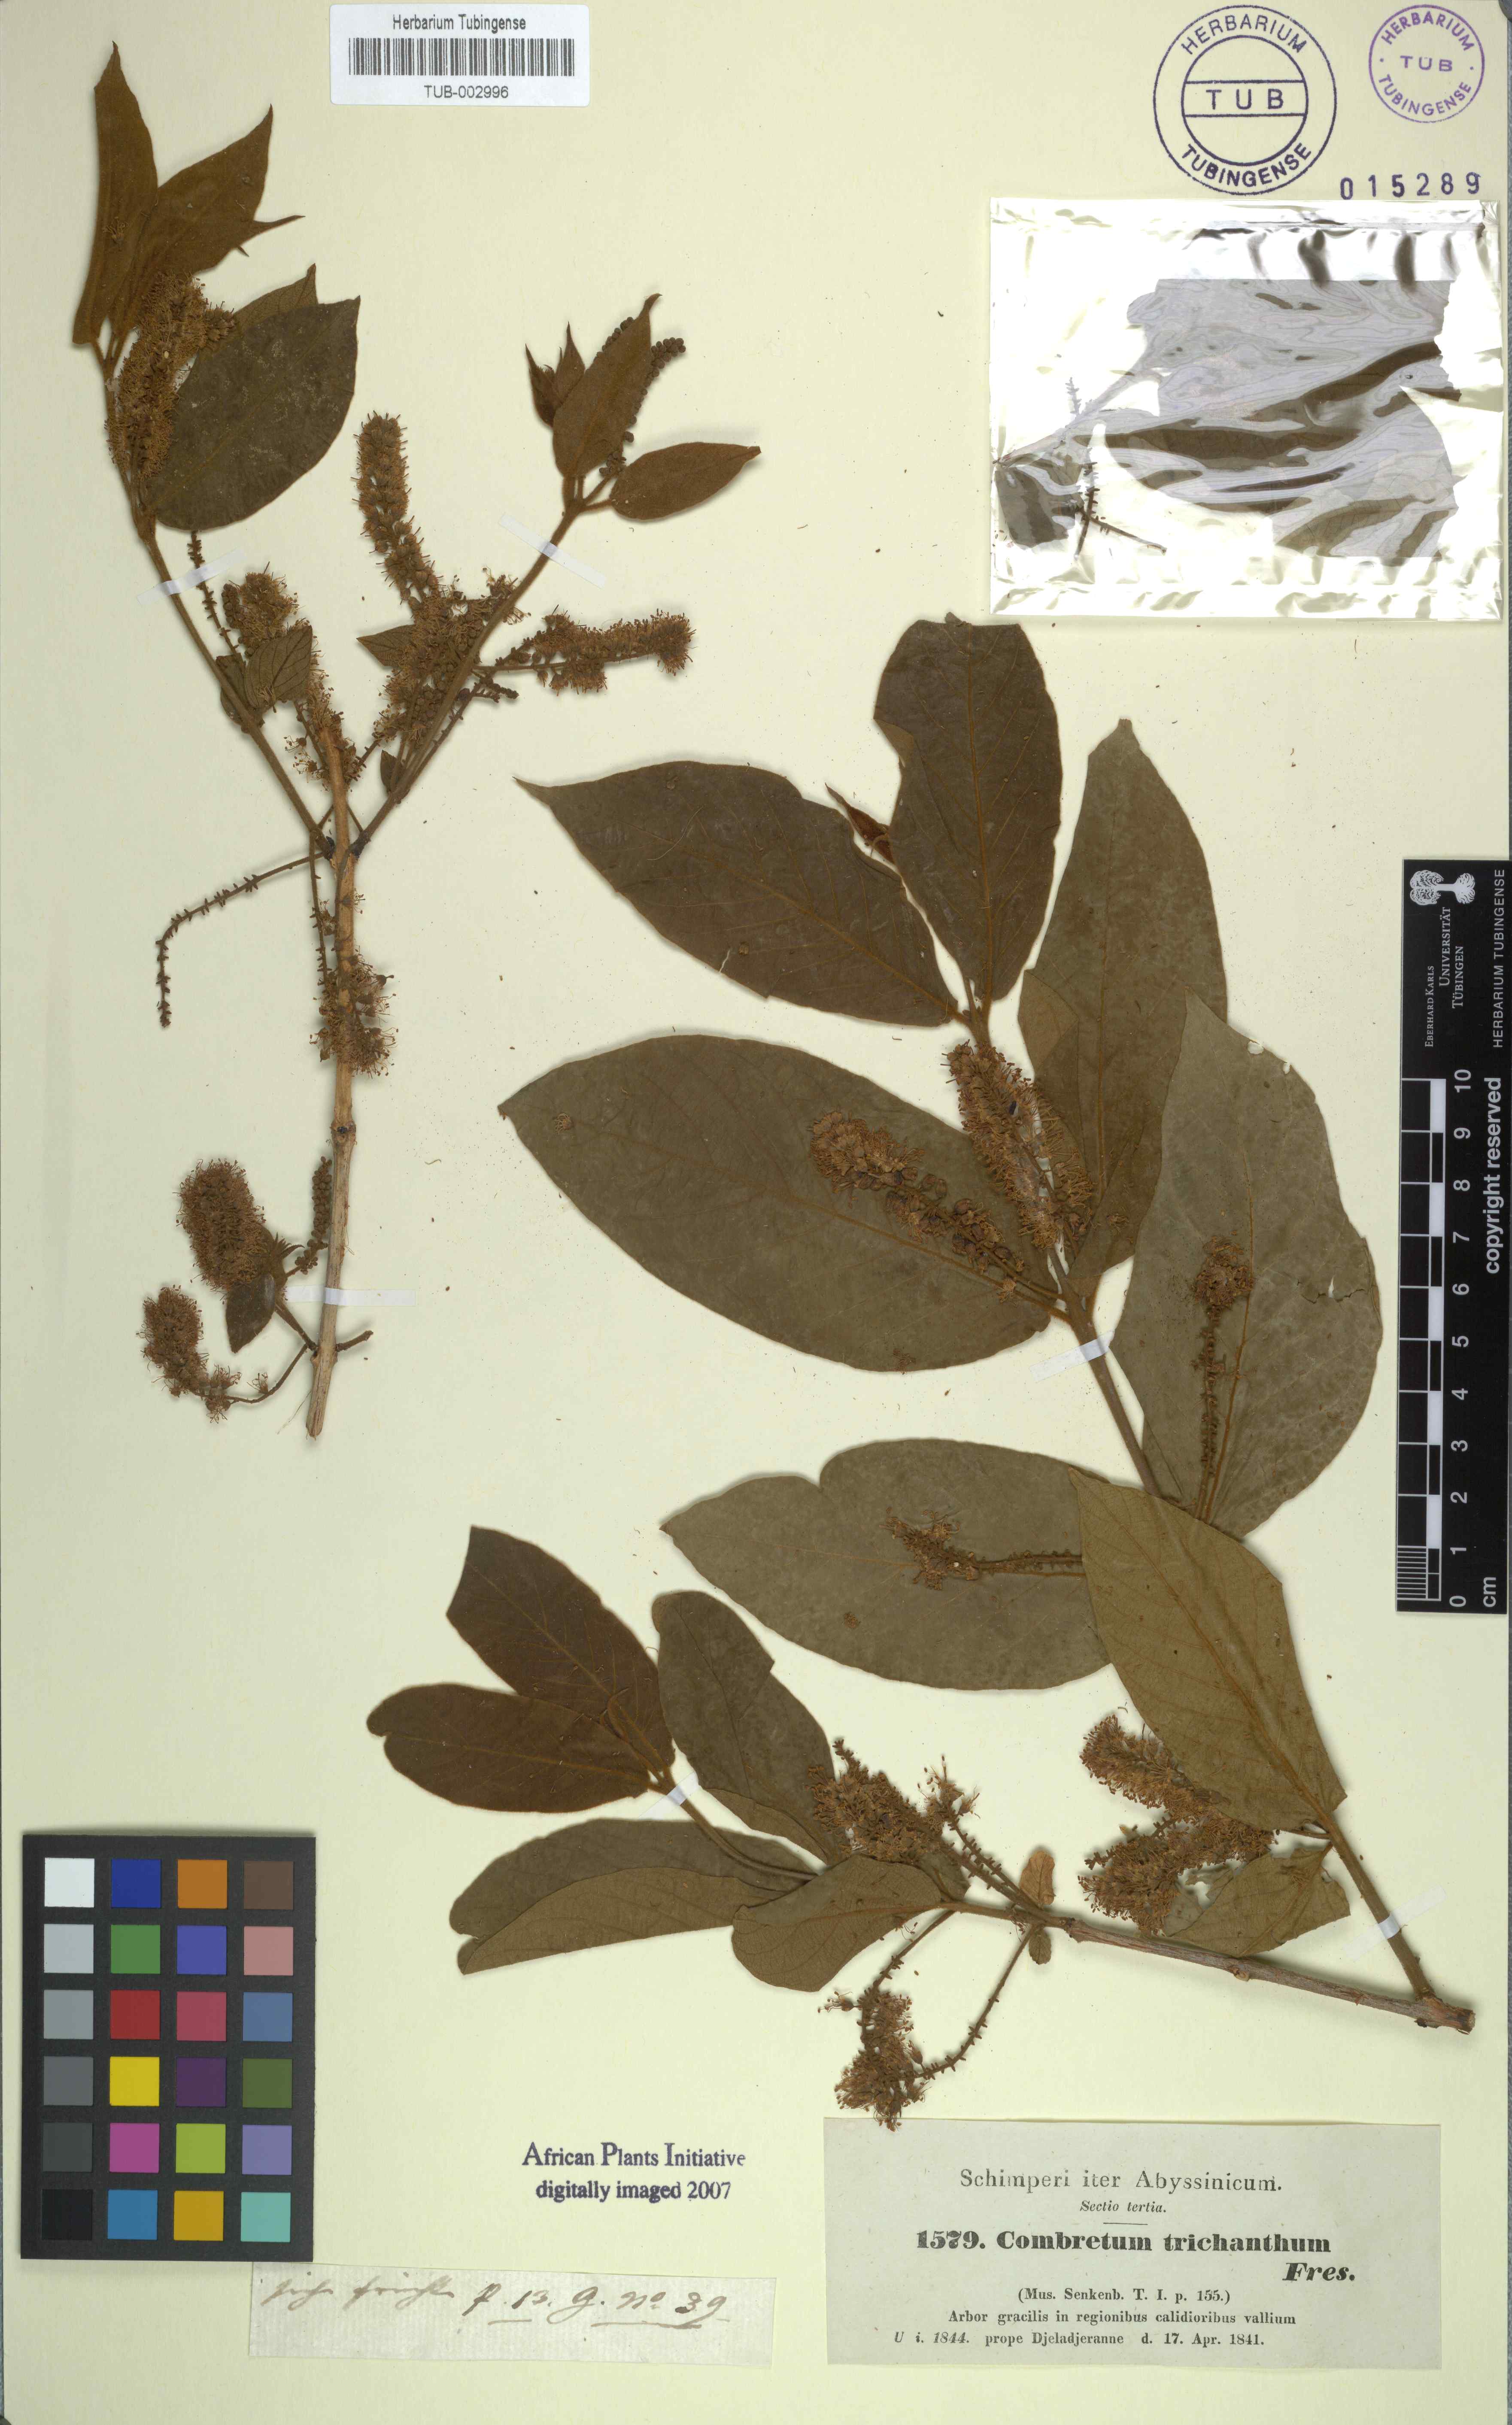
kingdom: Plantae
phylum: Tracheophyta
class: Magnoliopsida
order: Myrtales
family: Combretaceae
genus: Combretum
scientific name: Combretum molle
